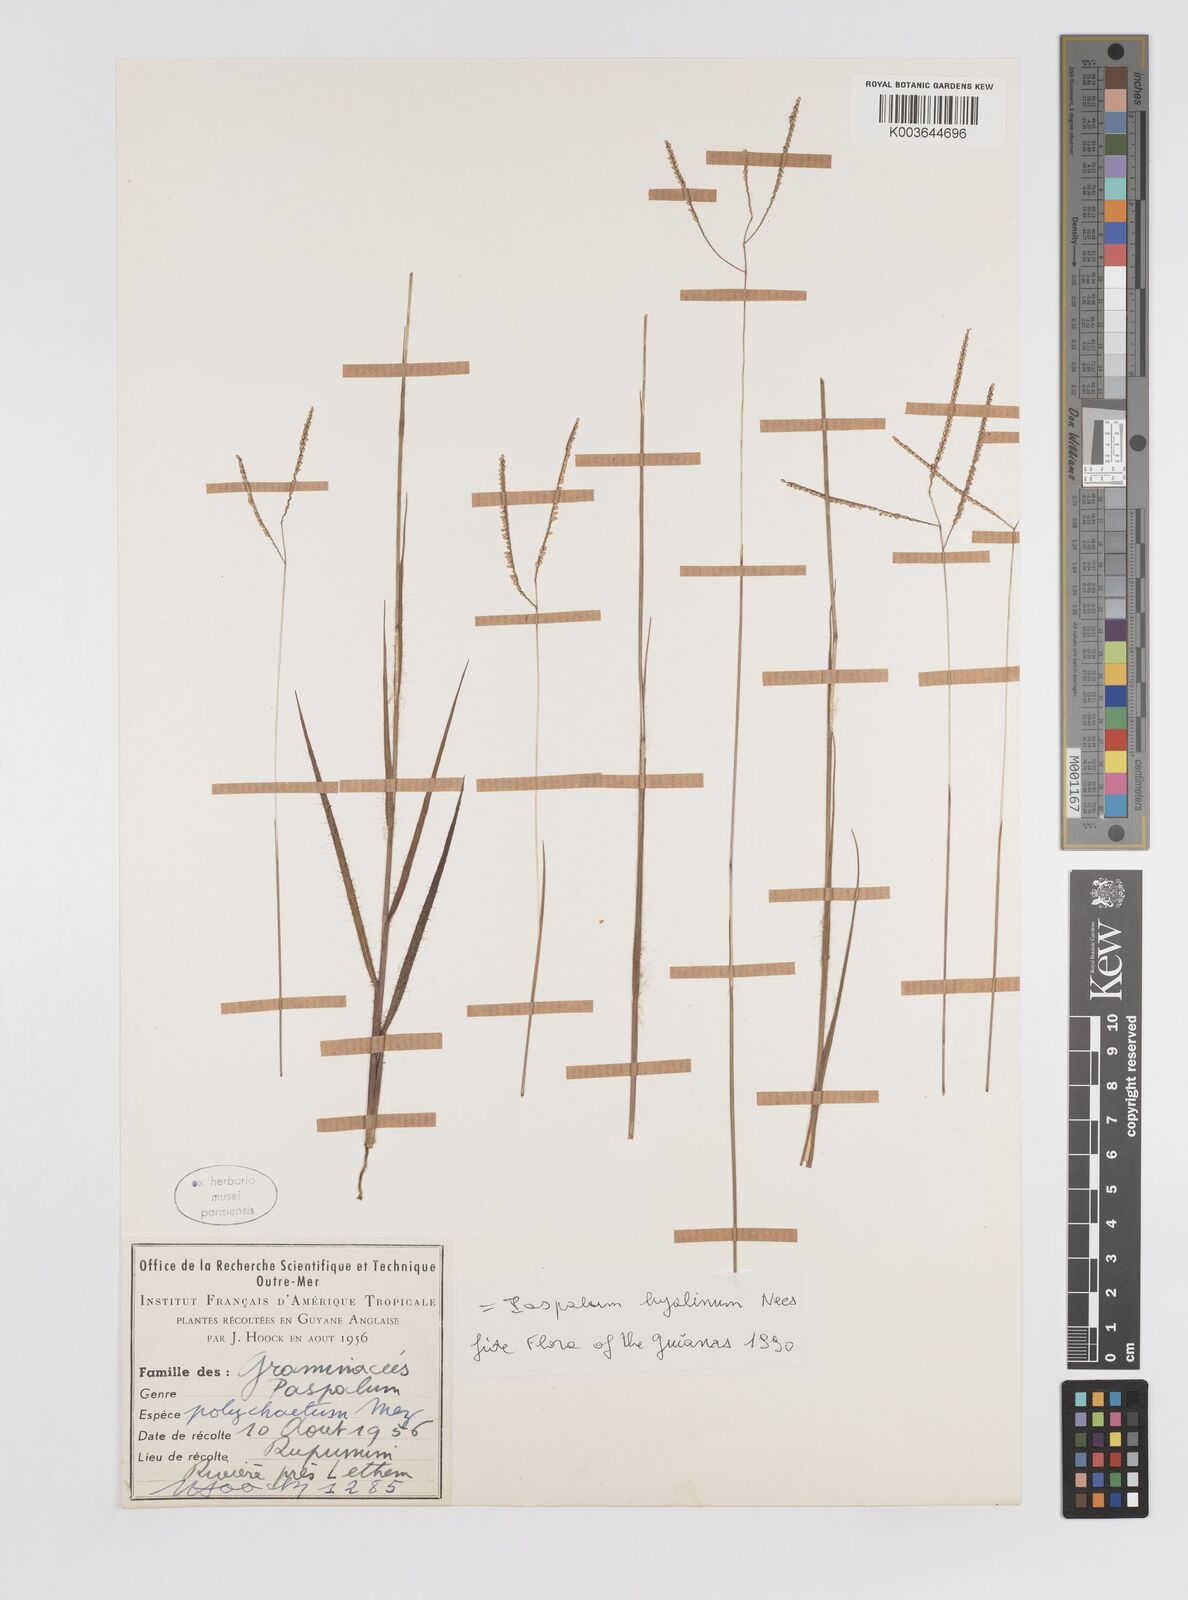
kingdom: Plantae
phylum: Tracheophyta
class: Liliopsida
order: Poales
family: Poaceae
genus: Paspalum
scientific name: Paspalum hyalinum
